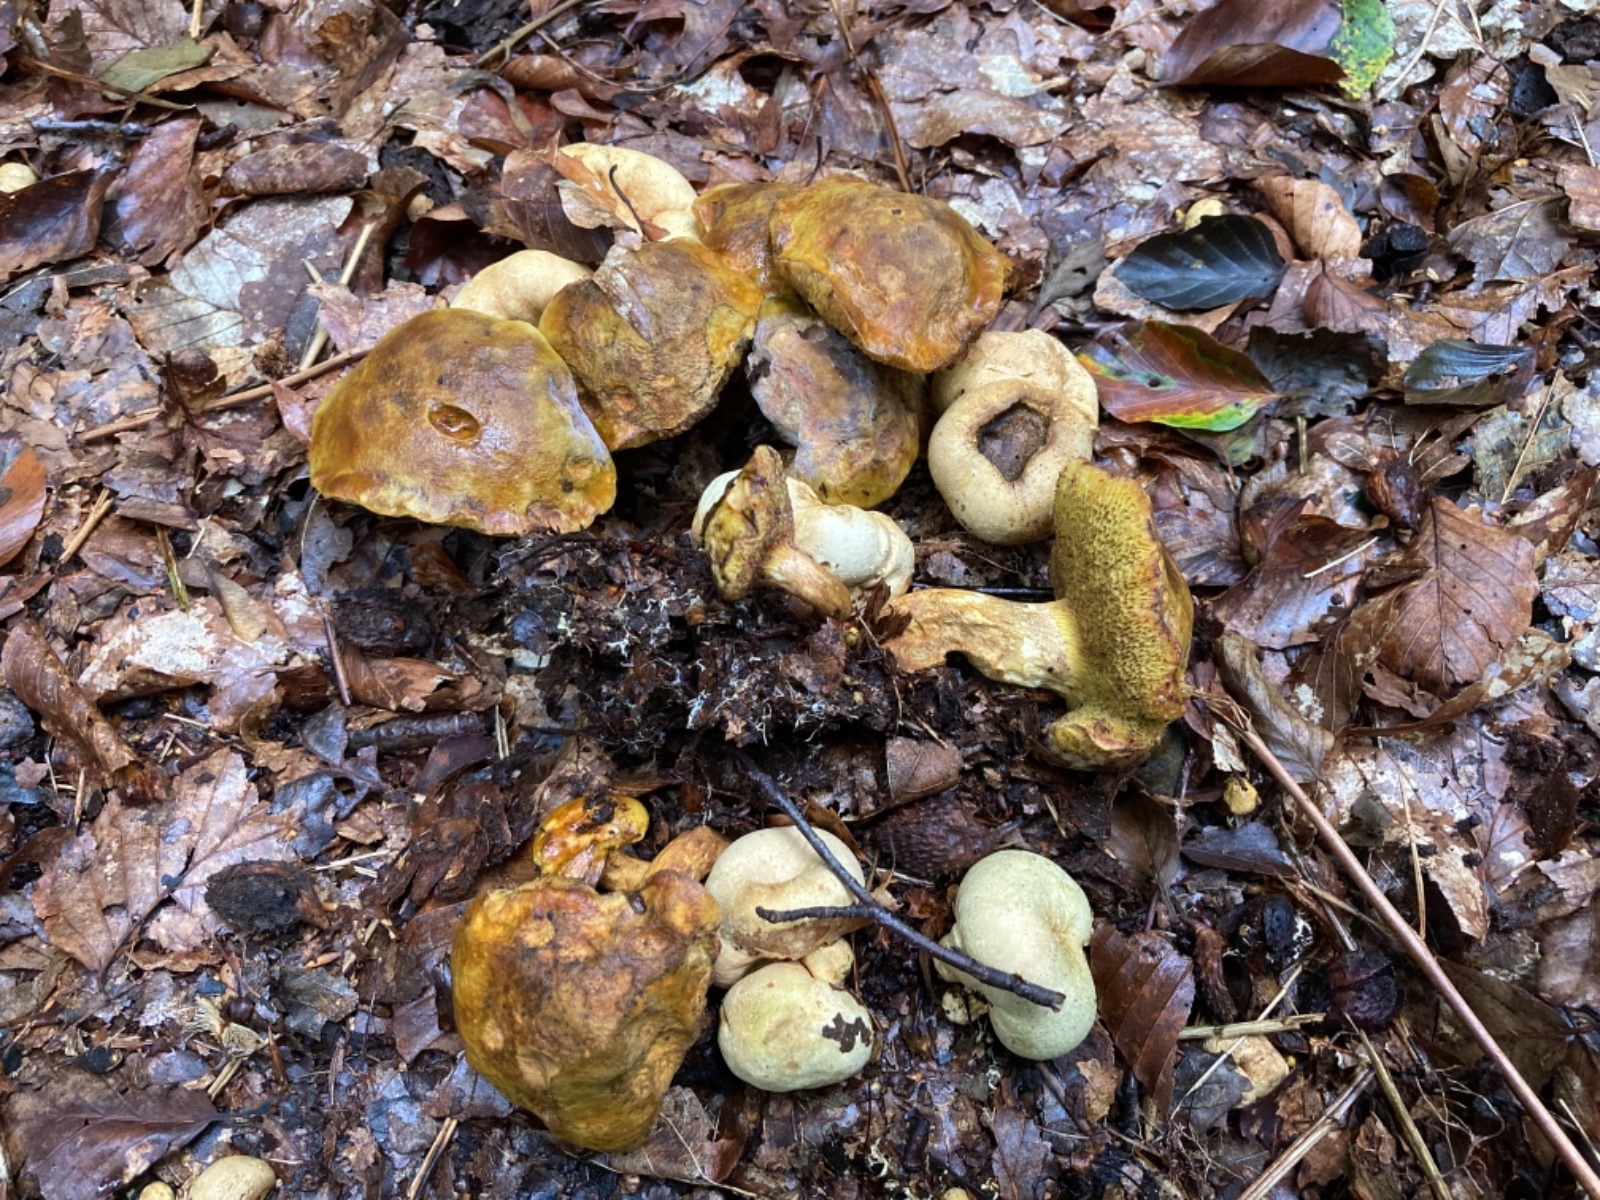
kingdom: Fungi
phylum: Basidiomycota
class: Agaricomycetes
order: Boletales
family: Boletaceae
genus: Pseudoboletus
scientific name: Pseudoboletus parasiticus
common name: snyltende rørhat
